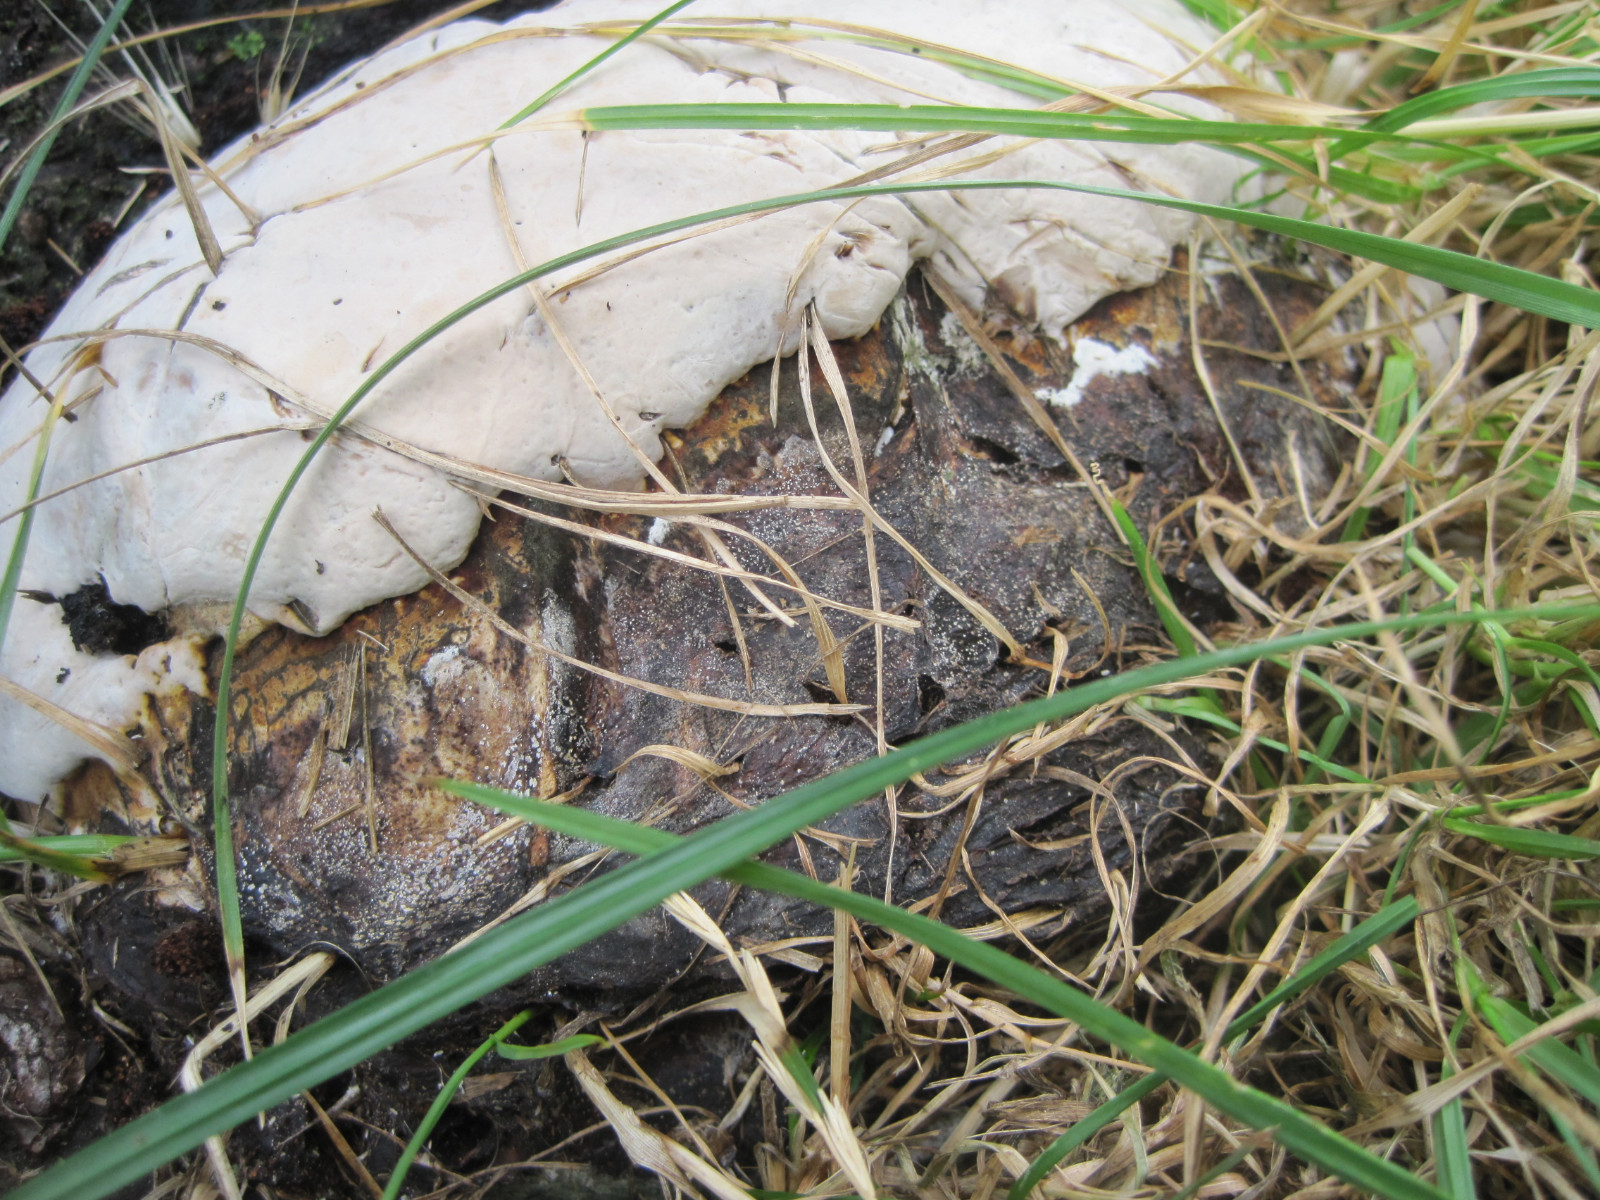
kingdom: Fungi
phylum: Basidiomycota
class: Agaricomycetes
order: Polyporales
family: Polyporaceae
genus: Ganoderma
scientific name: Ganoderma applanatum
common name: flad lakporesvamp
